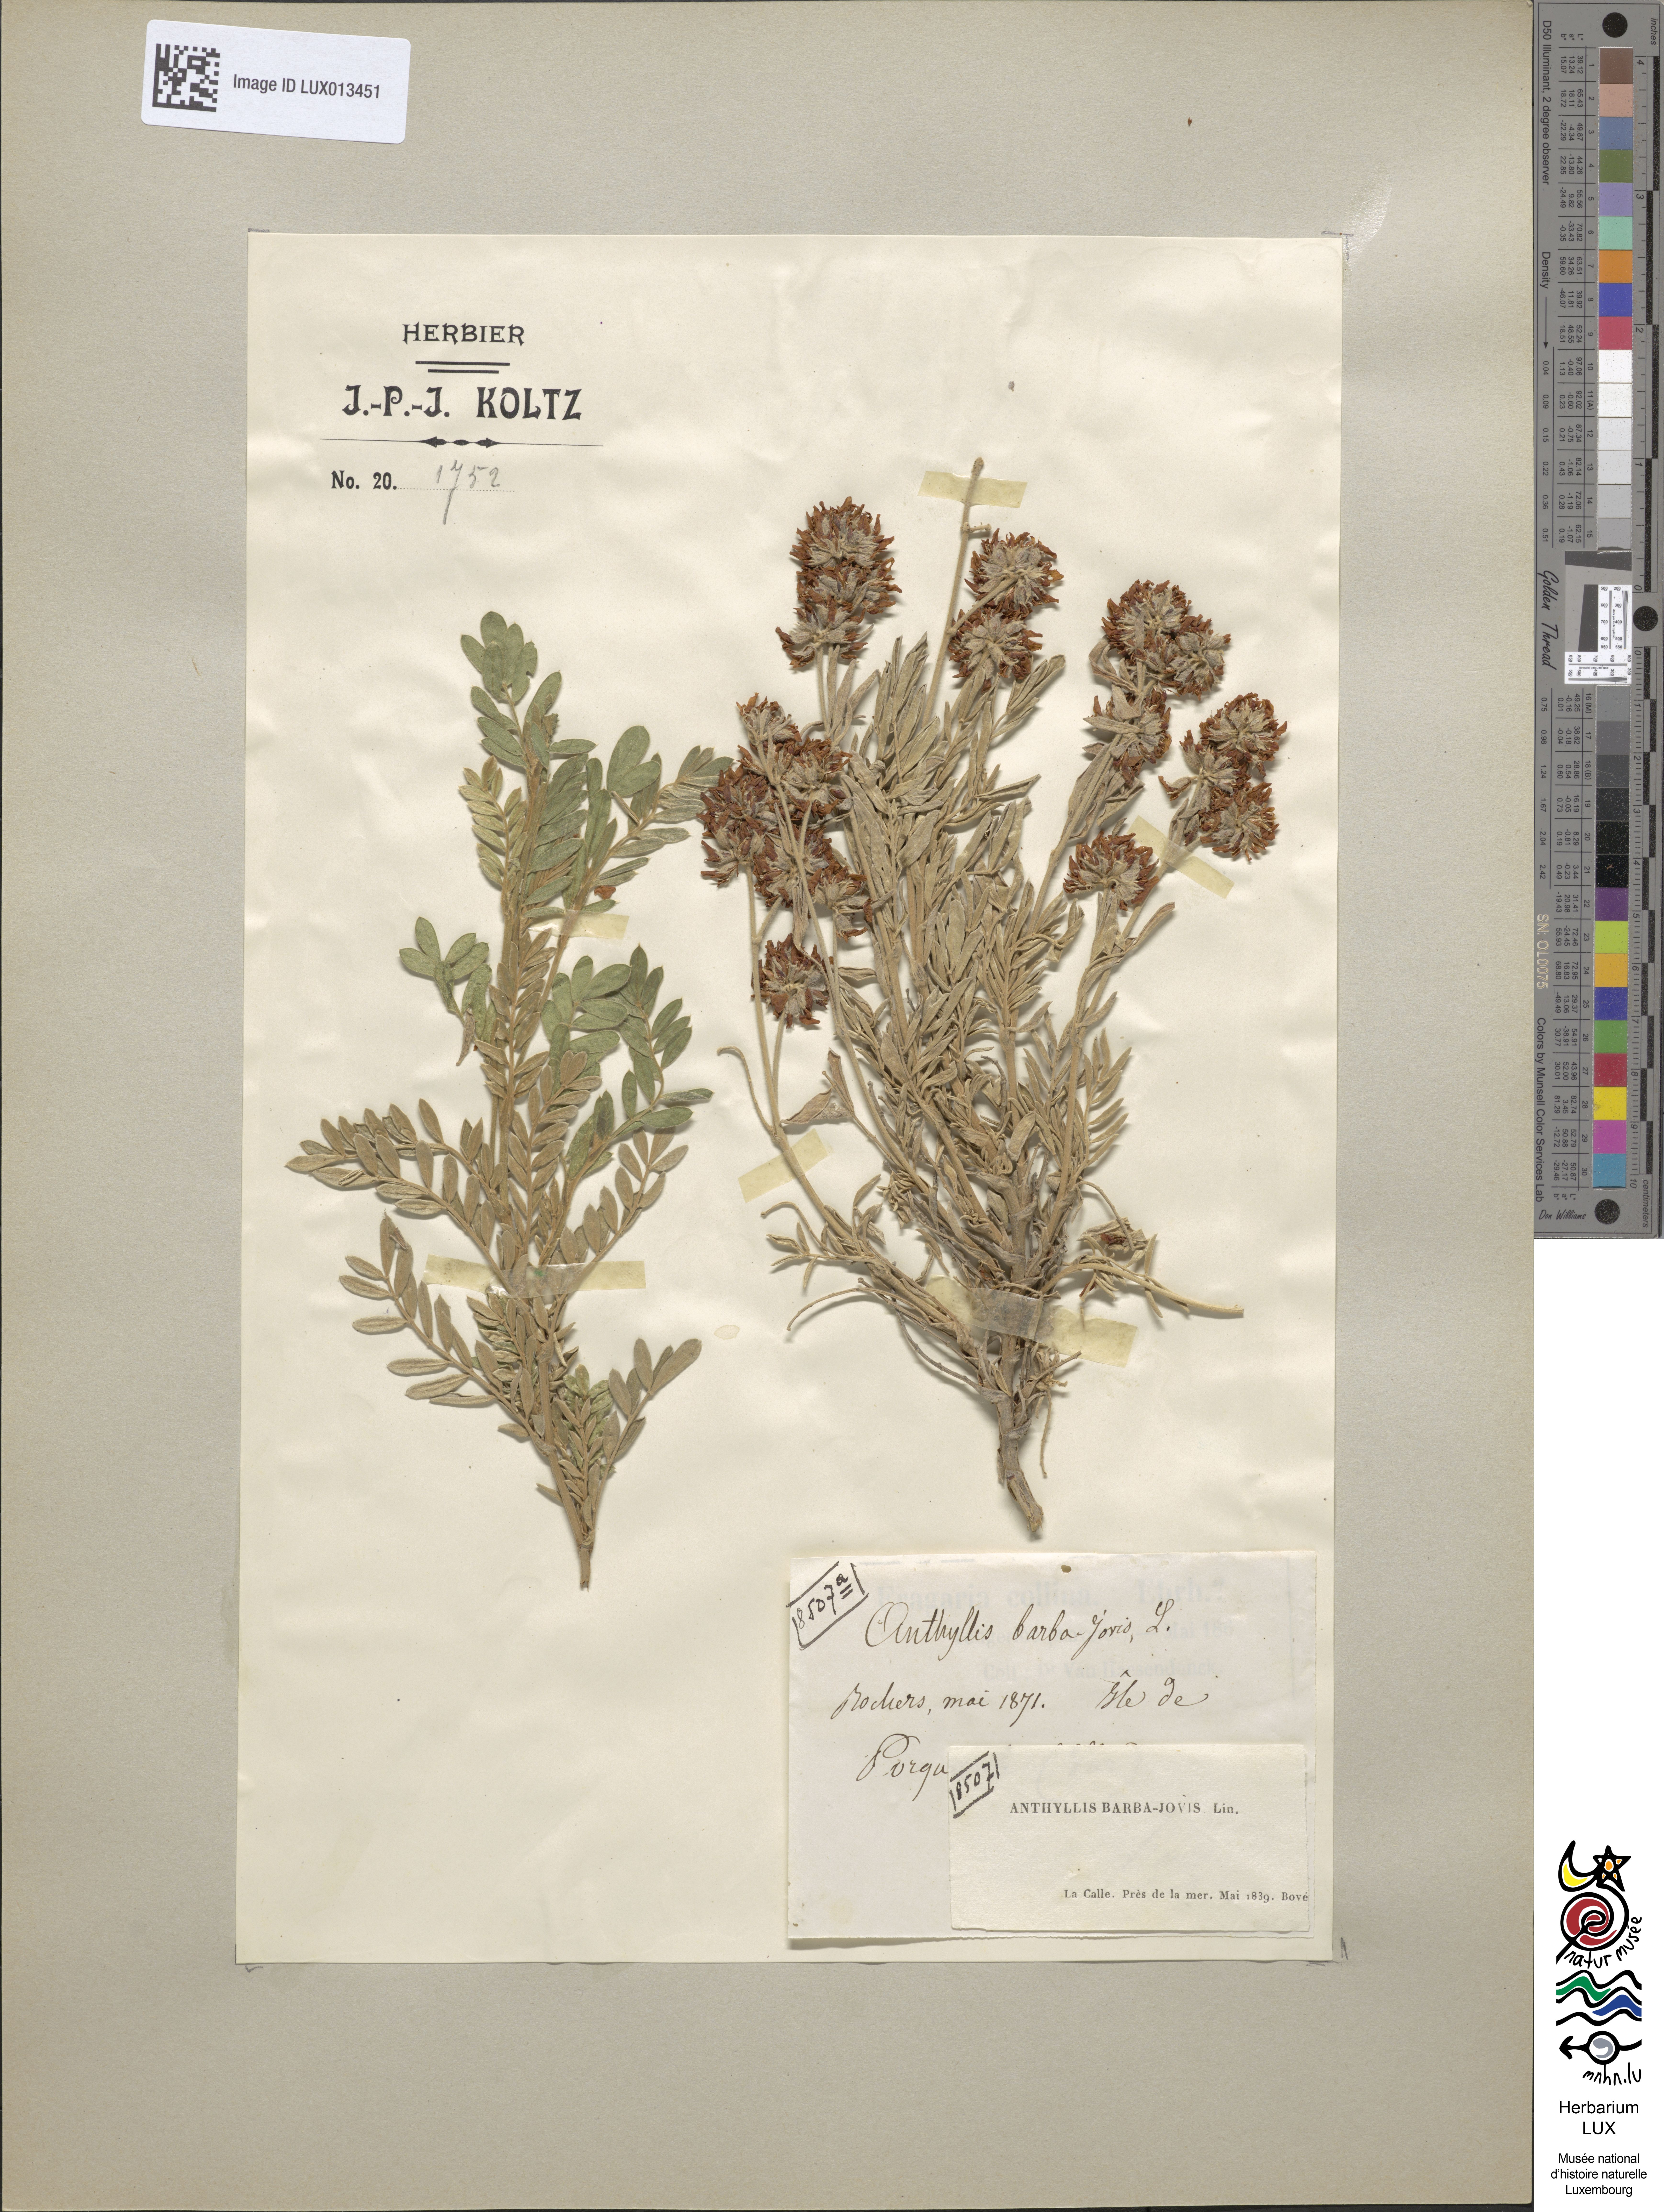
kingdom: Plantae
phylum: Tracheophyta
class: Magnoliopsida
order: Fabales
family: Fabaceae
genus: Anthyllis
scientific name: Anthyllis barba-jovis
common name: Jupiter's-beard
